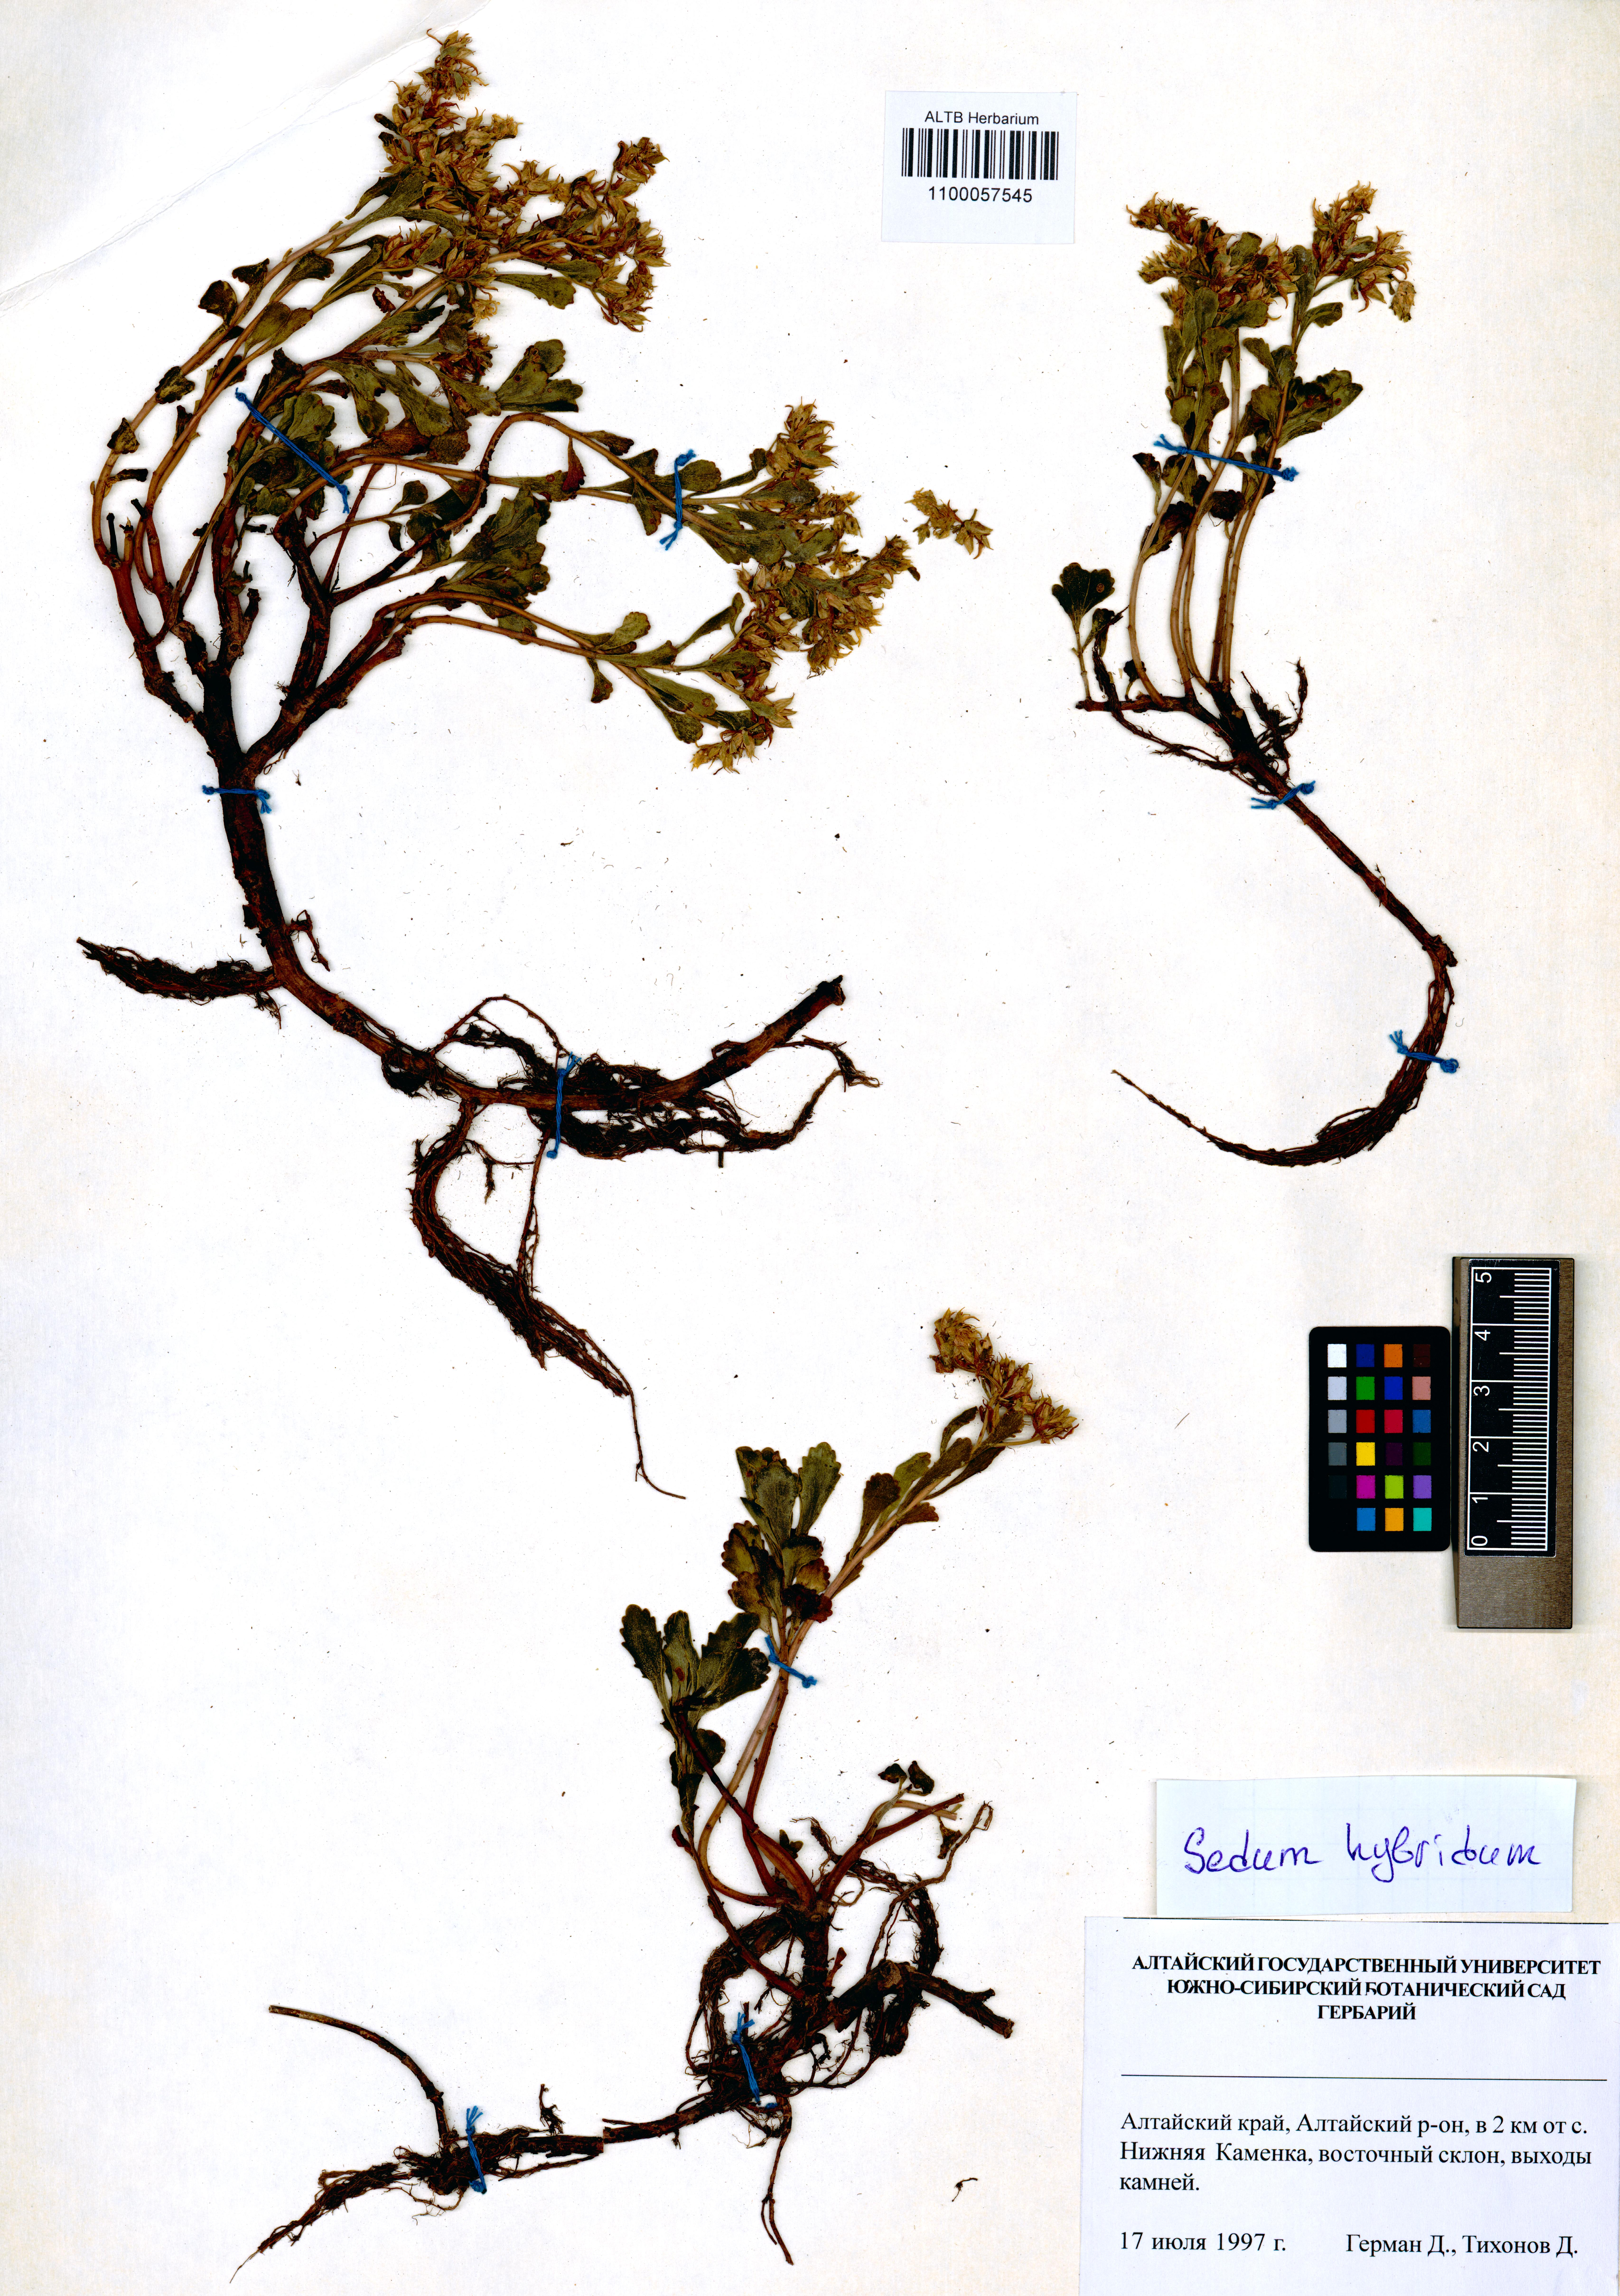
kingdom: Plantae
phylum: Tracheophyta
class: Magnoliopsida
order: Saxifragales
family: Crassulaceae
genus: Phedimus
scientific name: Phedimus hybridus
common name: Hybrid stonecrop
